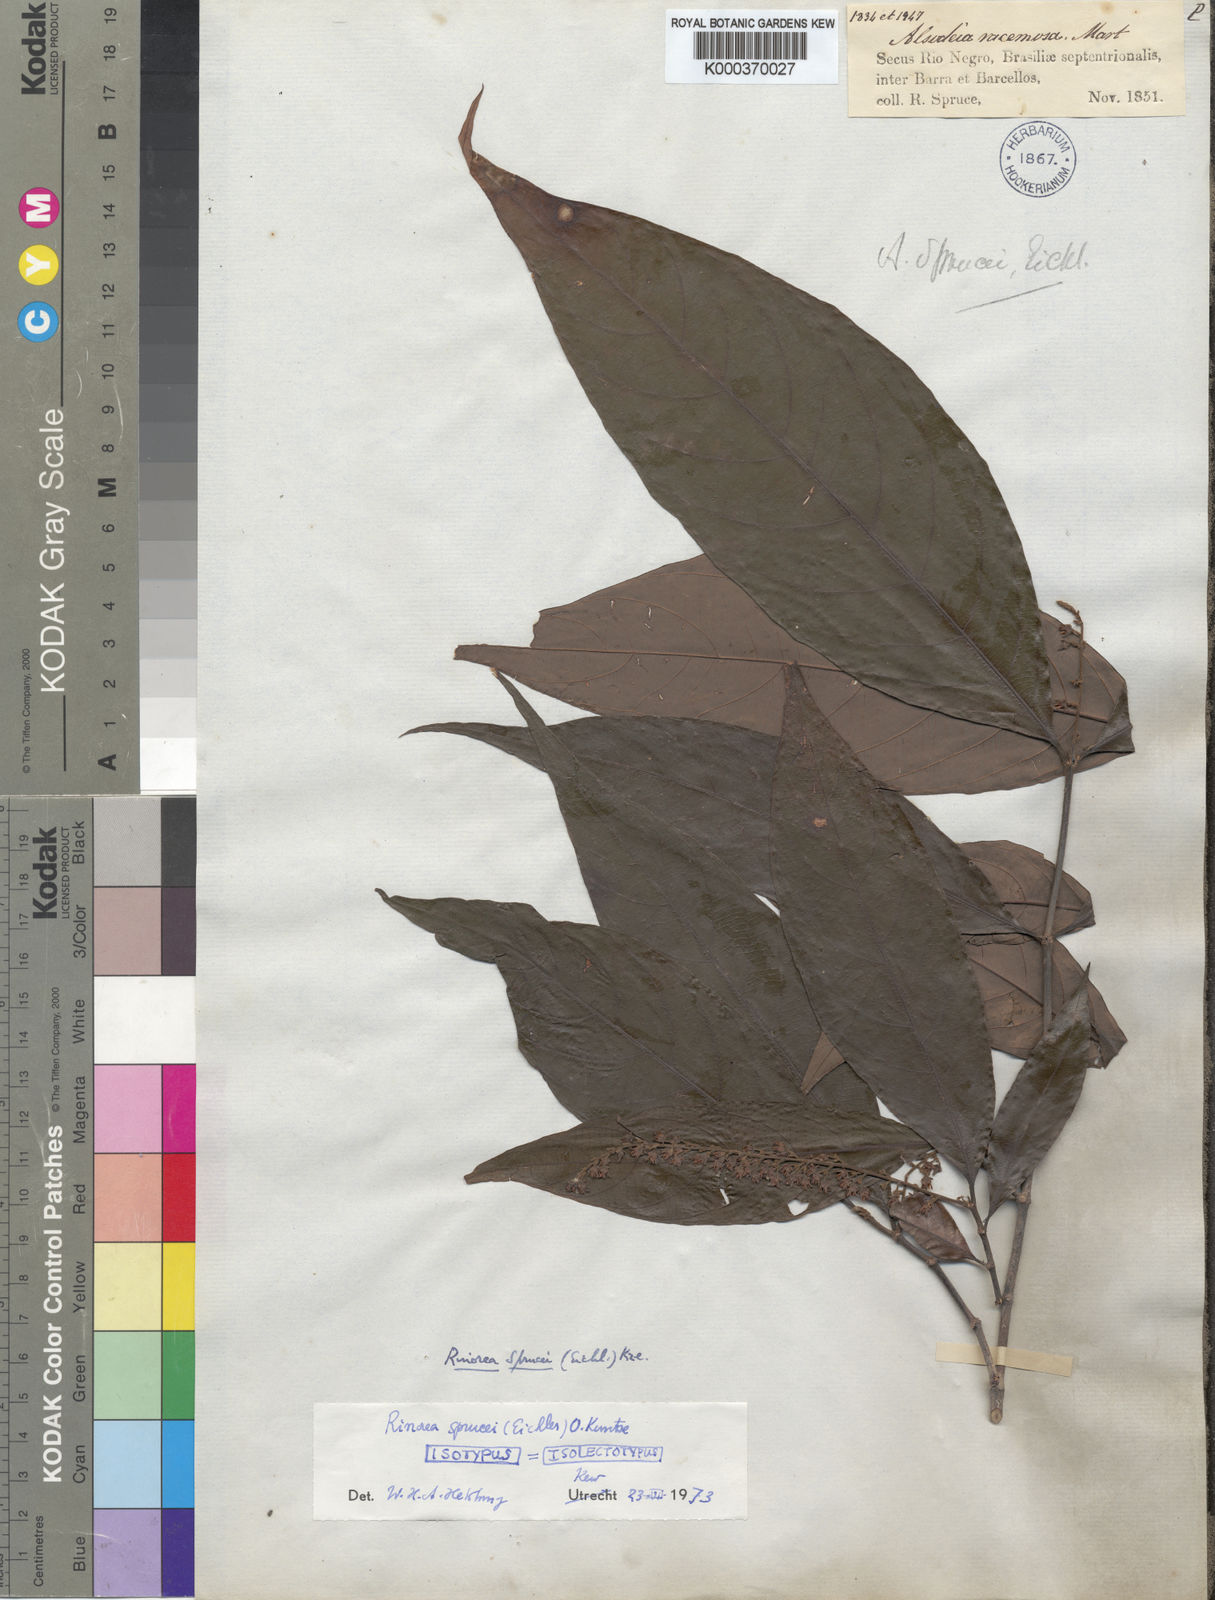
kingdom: Plantae
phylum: Tracheophyta
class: Magnoliopsida
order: Malpighiales
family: Violaceae
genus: Rinorea
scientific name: Rinorea sprucei
